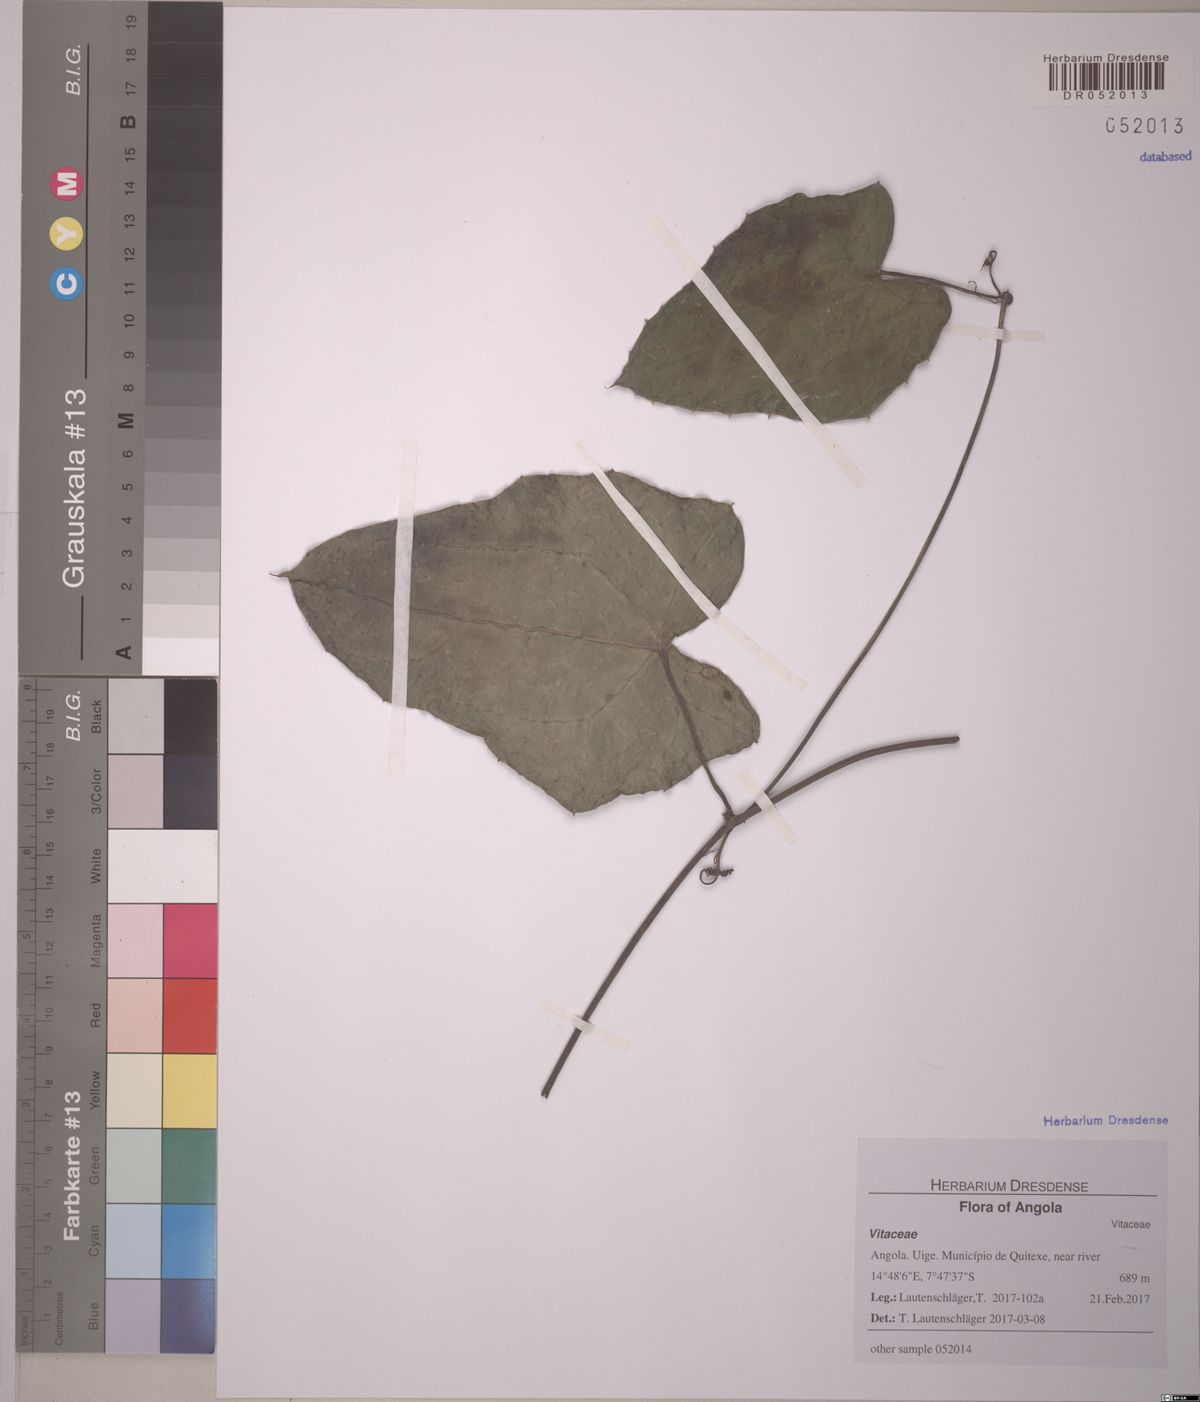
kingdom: Plantae
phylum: Tracheophyta
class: Magnoliopsida
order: Vitales
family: Vitaceae
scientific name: Vitaceae
